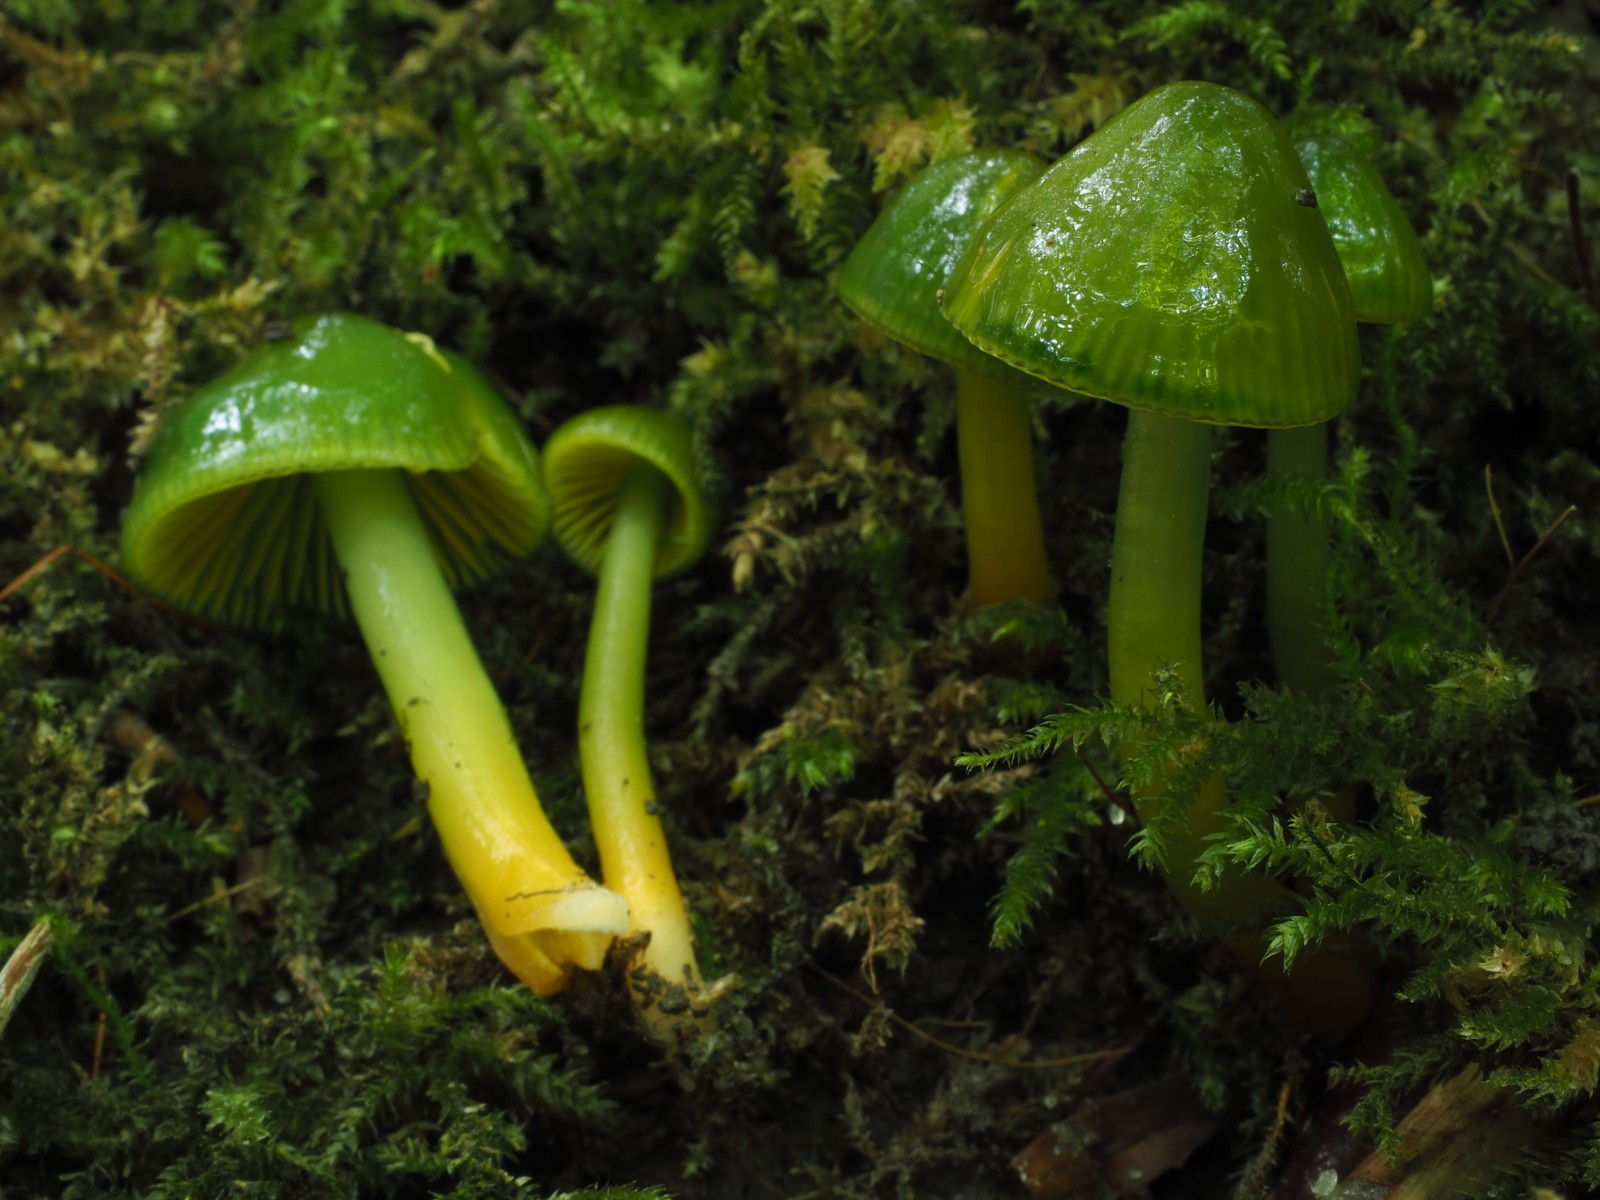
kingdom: Fungi
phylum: Basidiomycota
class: Agaricomycetes
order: Agaricales
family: Hygrophoraceae
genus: Gliophorus
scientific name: Gliophorus psittacinus
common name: papegøje-vokshat
